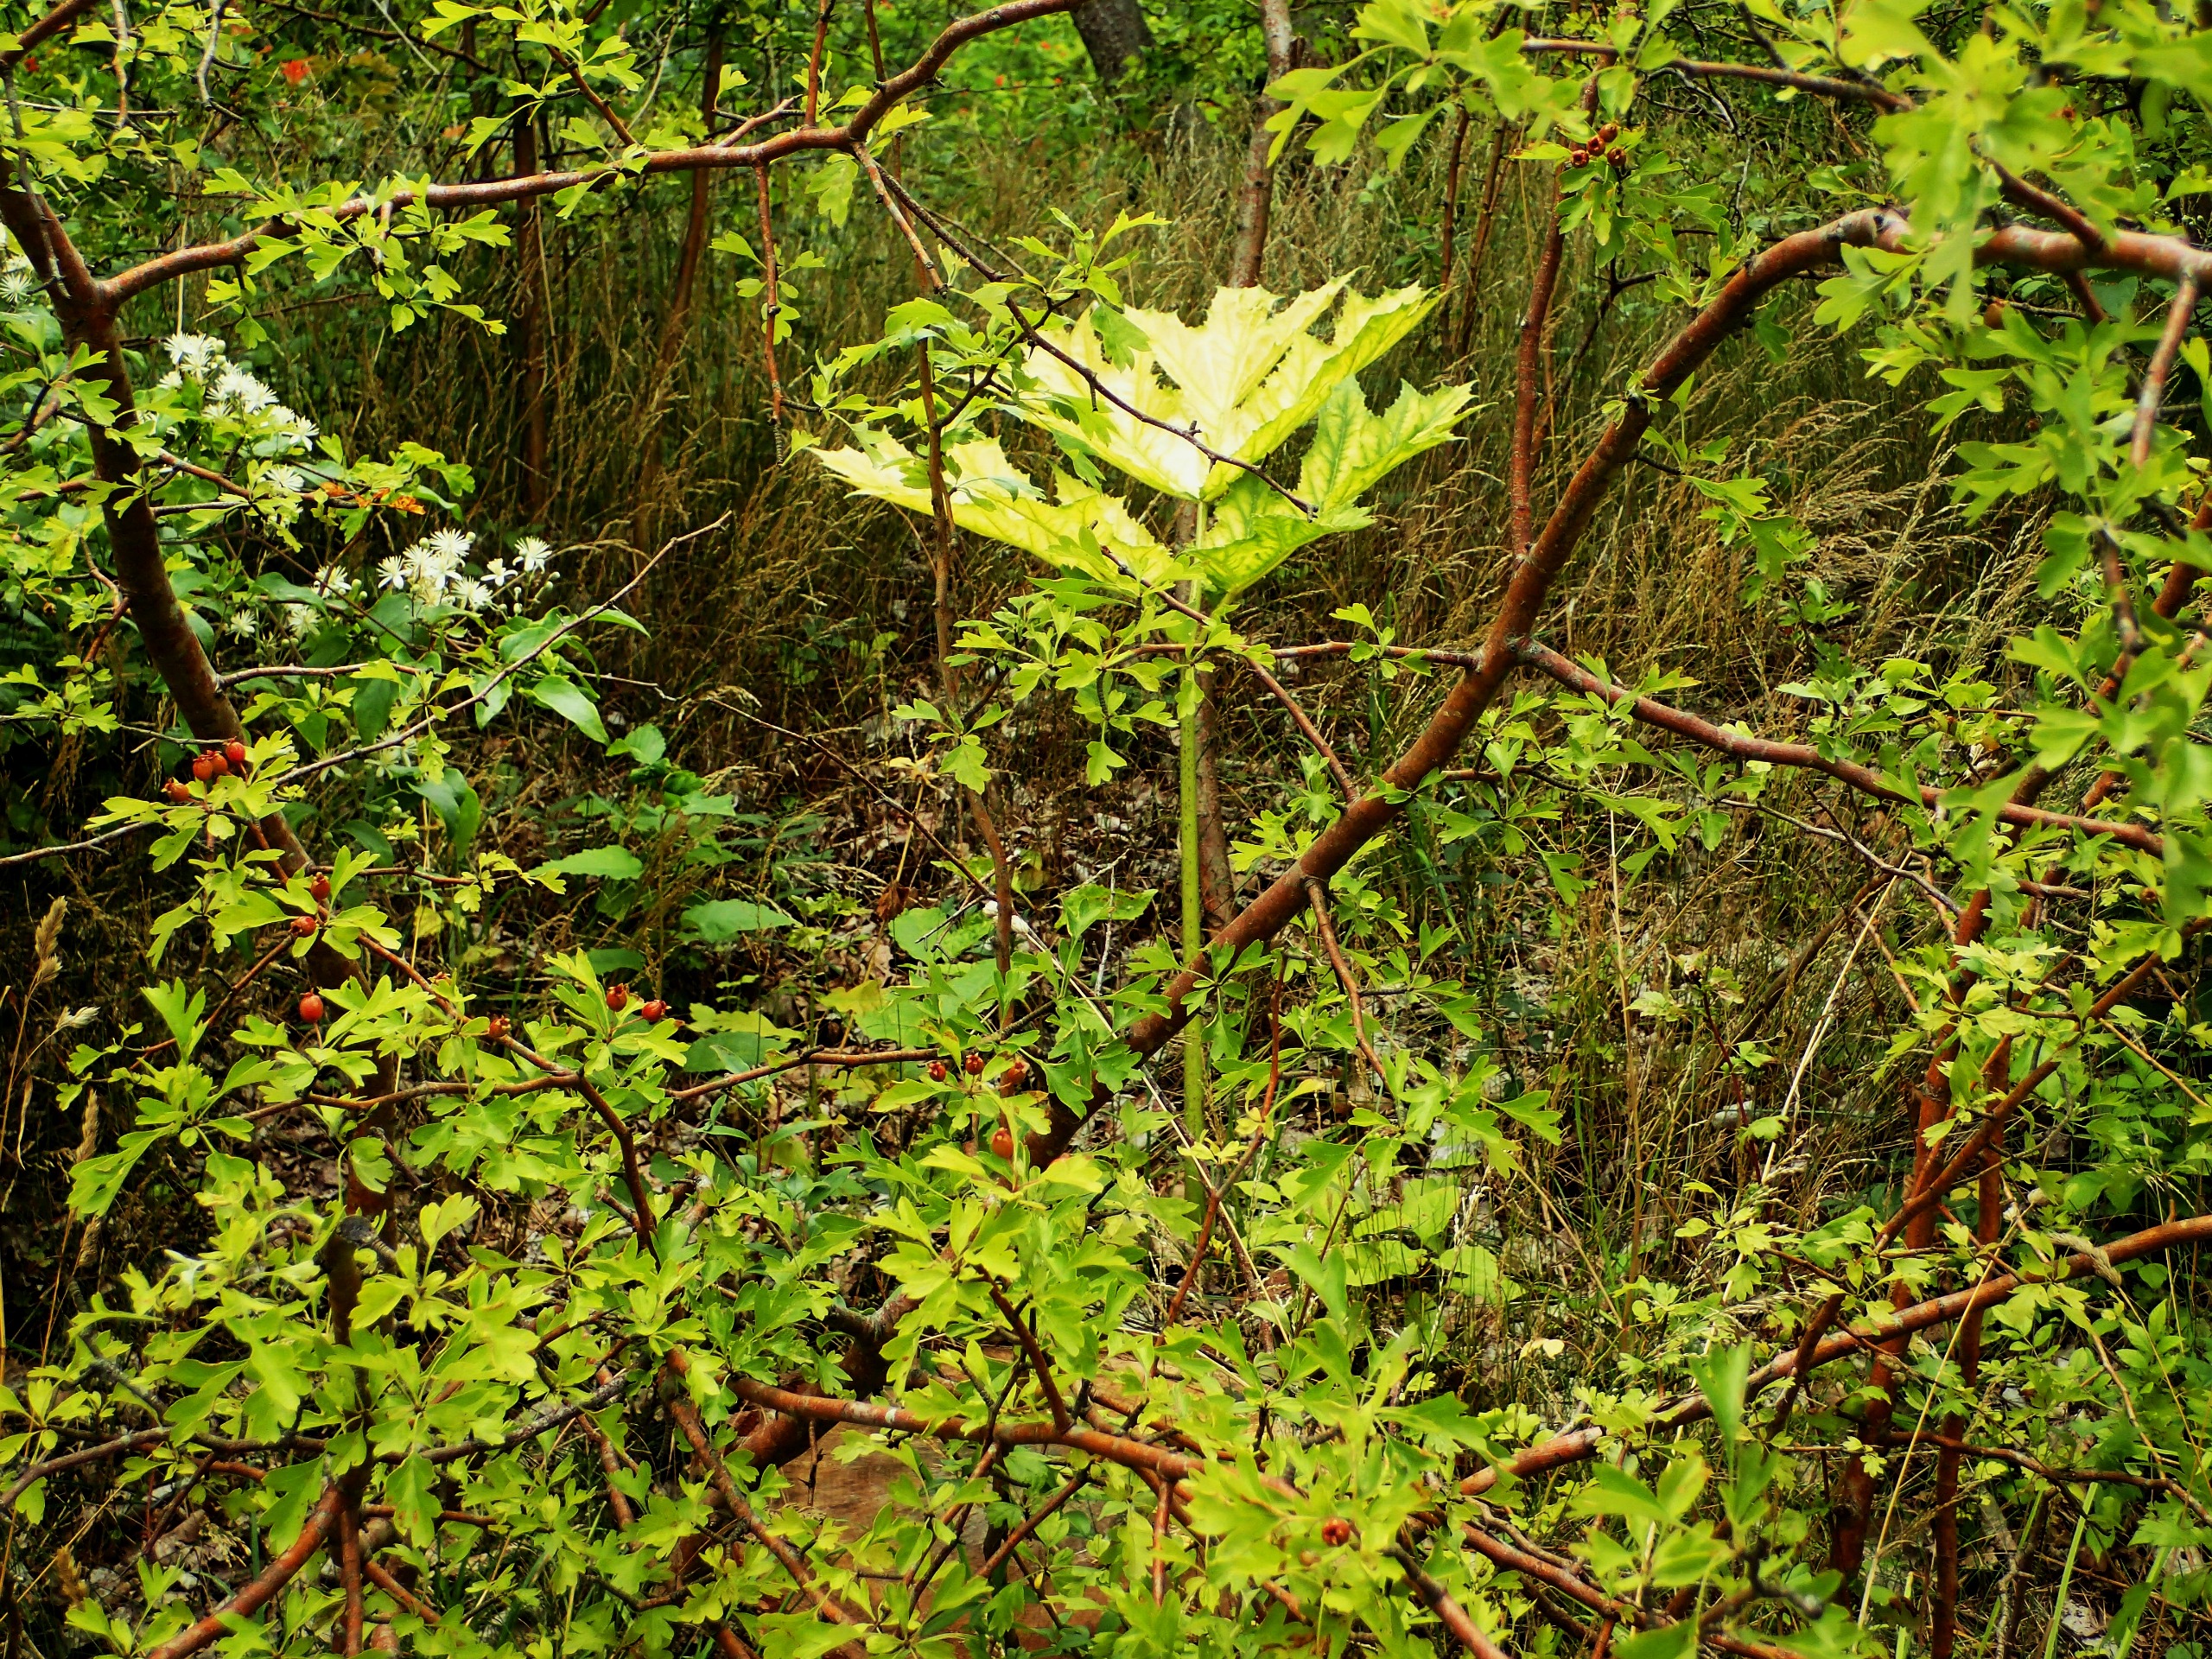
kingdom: Plantae
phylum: Tracheophyta
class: Magnoliopsida
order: Apiales
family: Apiaceae
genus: Heracleum
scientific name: Heracleum mantegazzianum
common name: Kæmpe-bjørneklo
